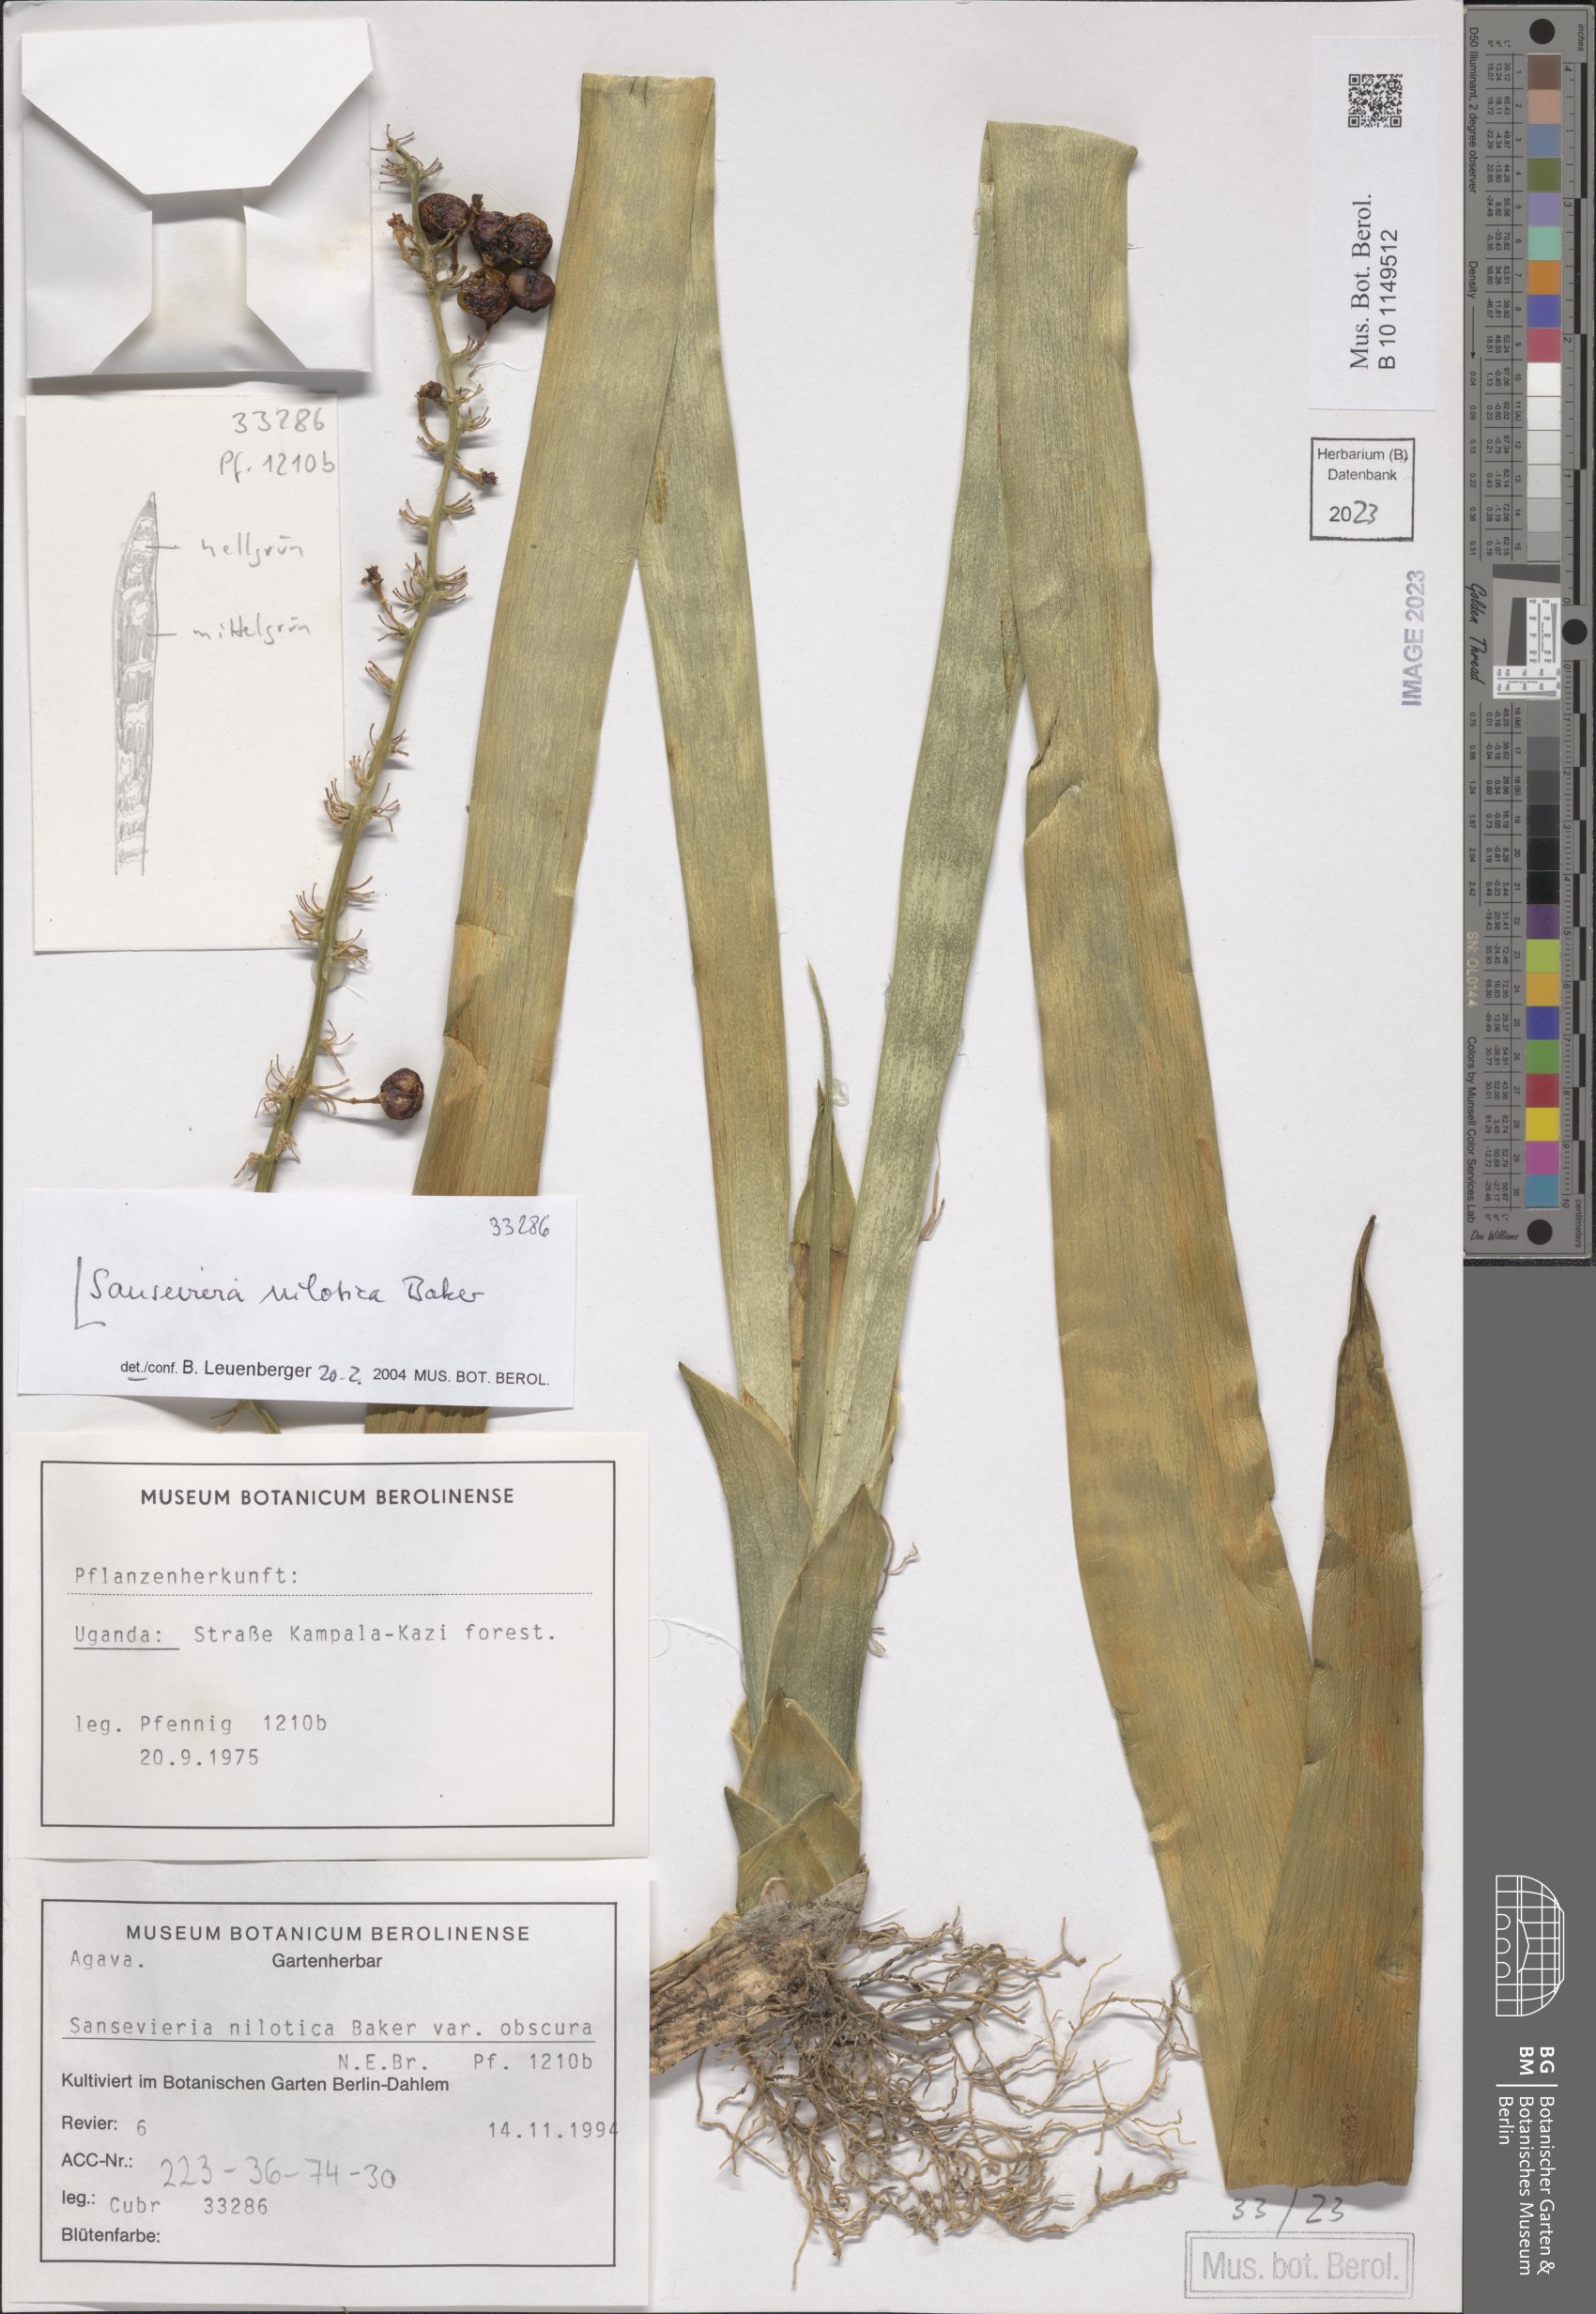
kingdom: Plantae
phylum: Tracheophyta
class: Liliopsida
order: Asparagales
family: Asparagaceae
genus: Dracaena
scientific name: Dracaena nilotica
